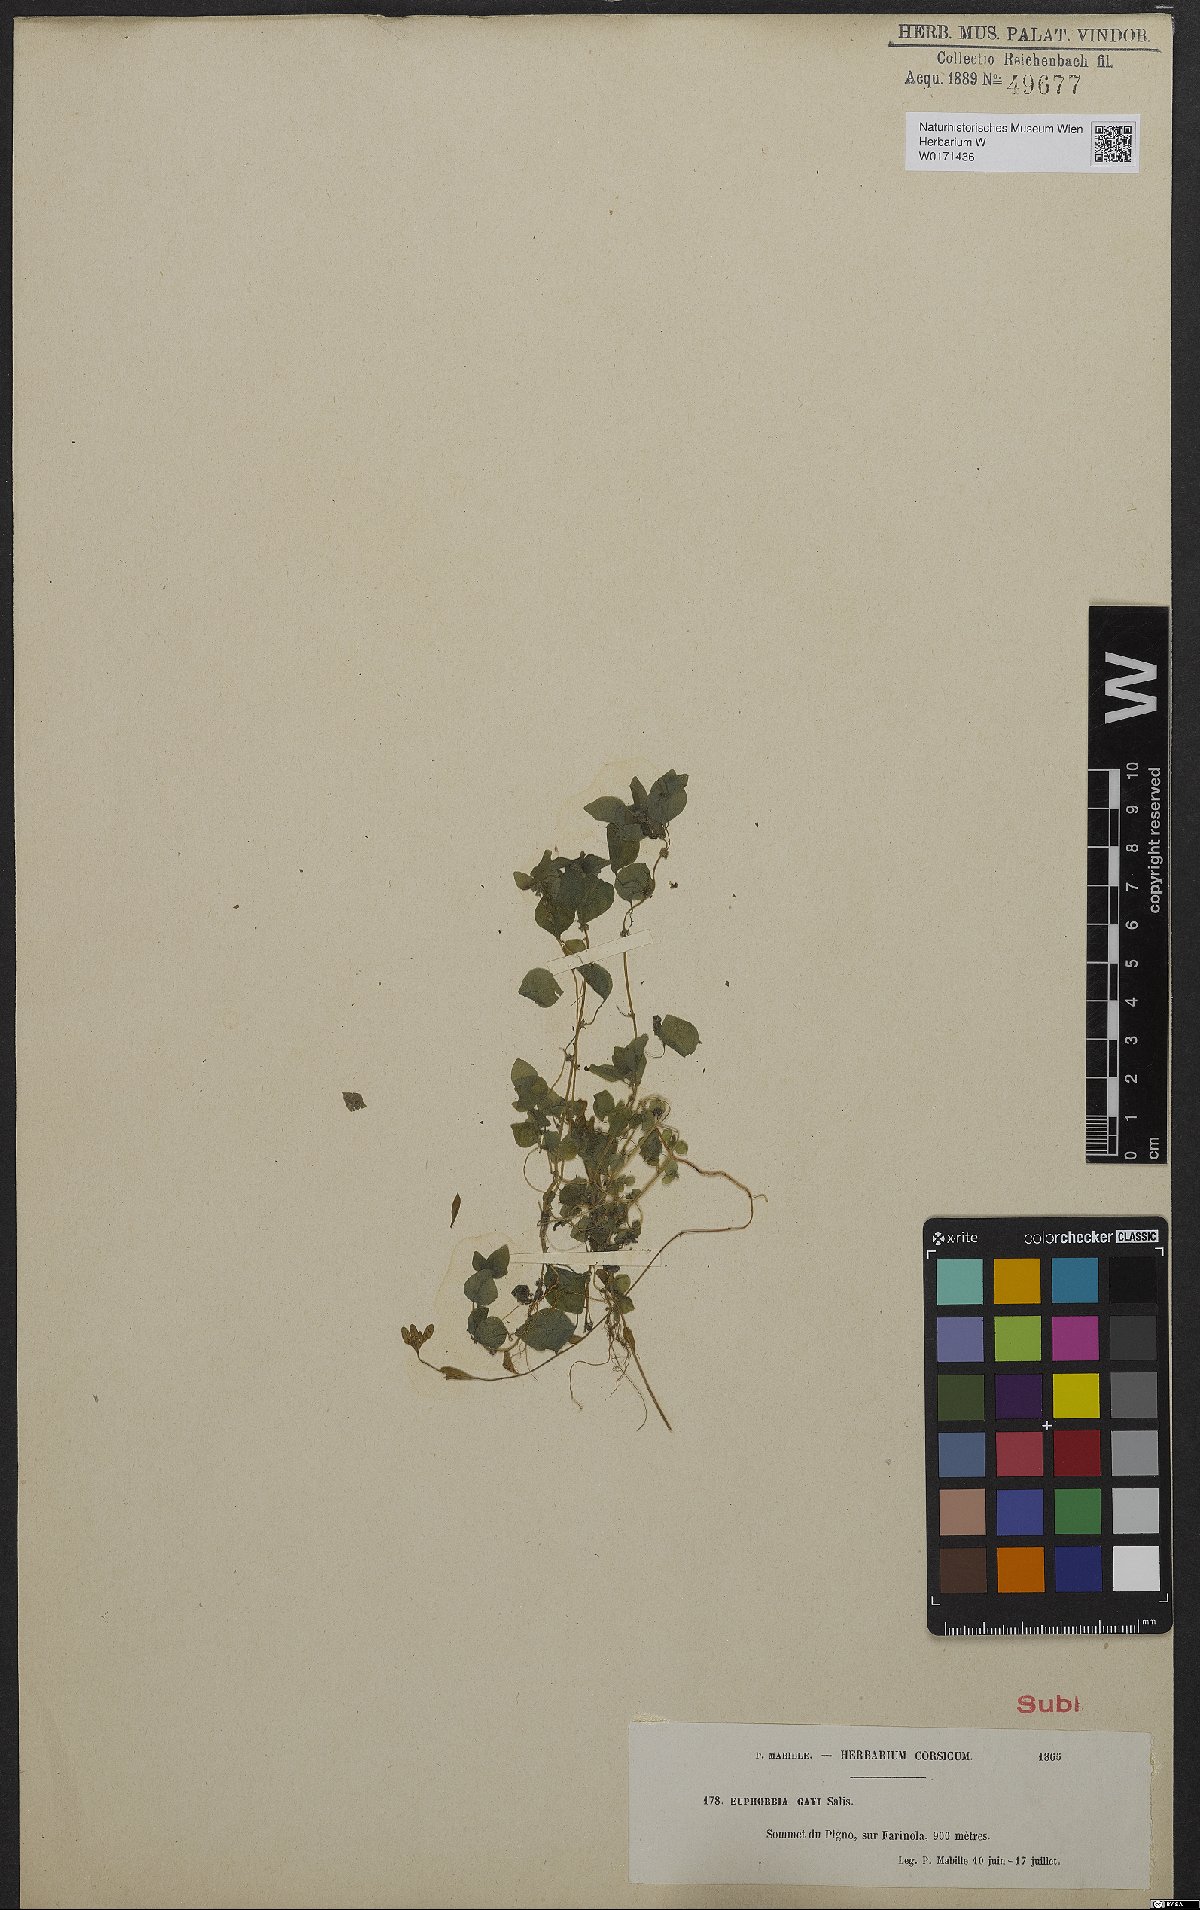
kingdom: Plantae
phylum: Tracheophyta
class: Magnoliopsida
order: Malpighiales
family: Euphorbiaceae
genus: Euphorbia
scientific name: Euphorbia gayi
